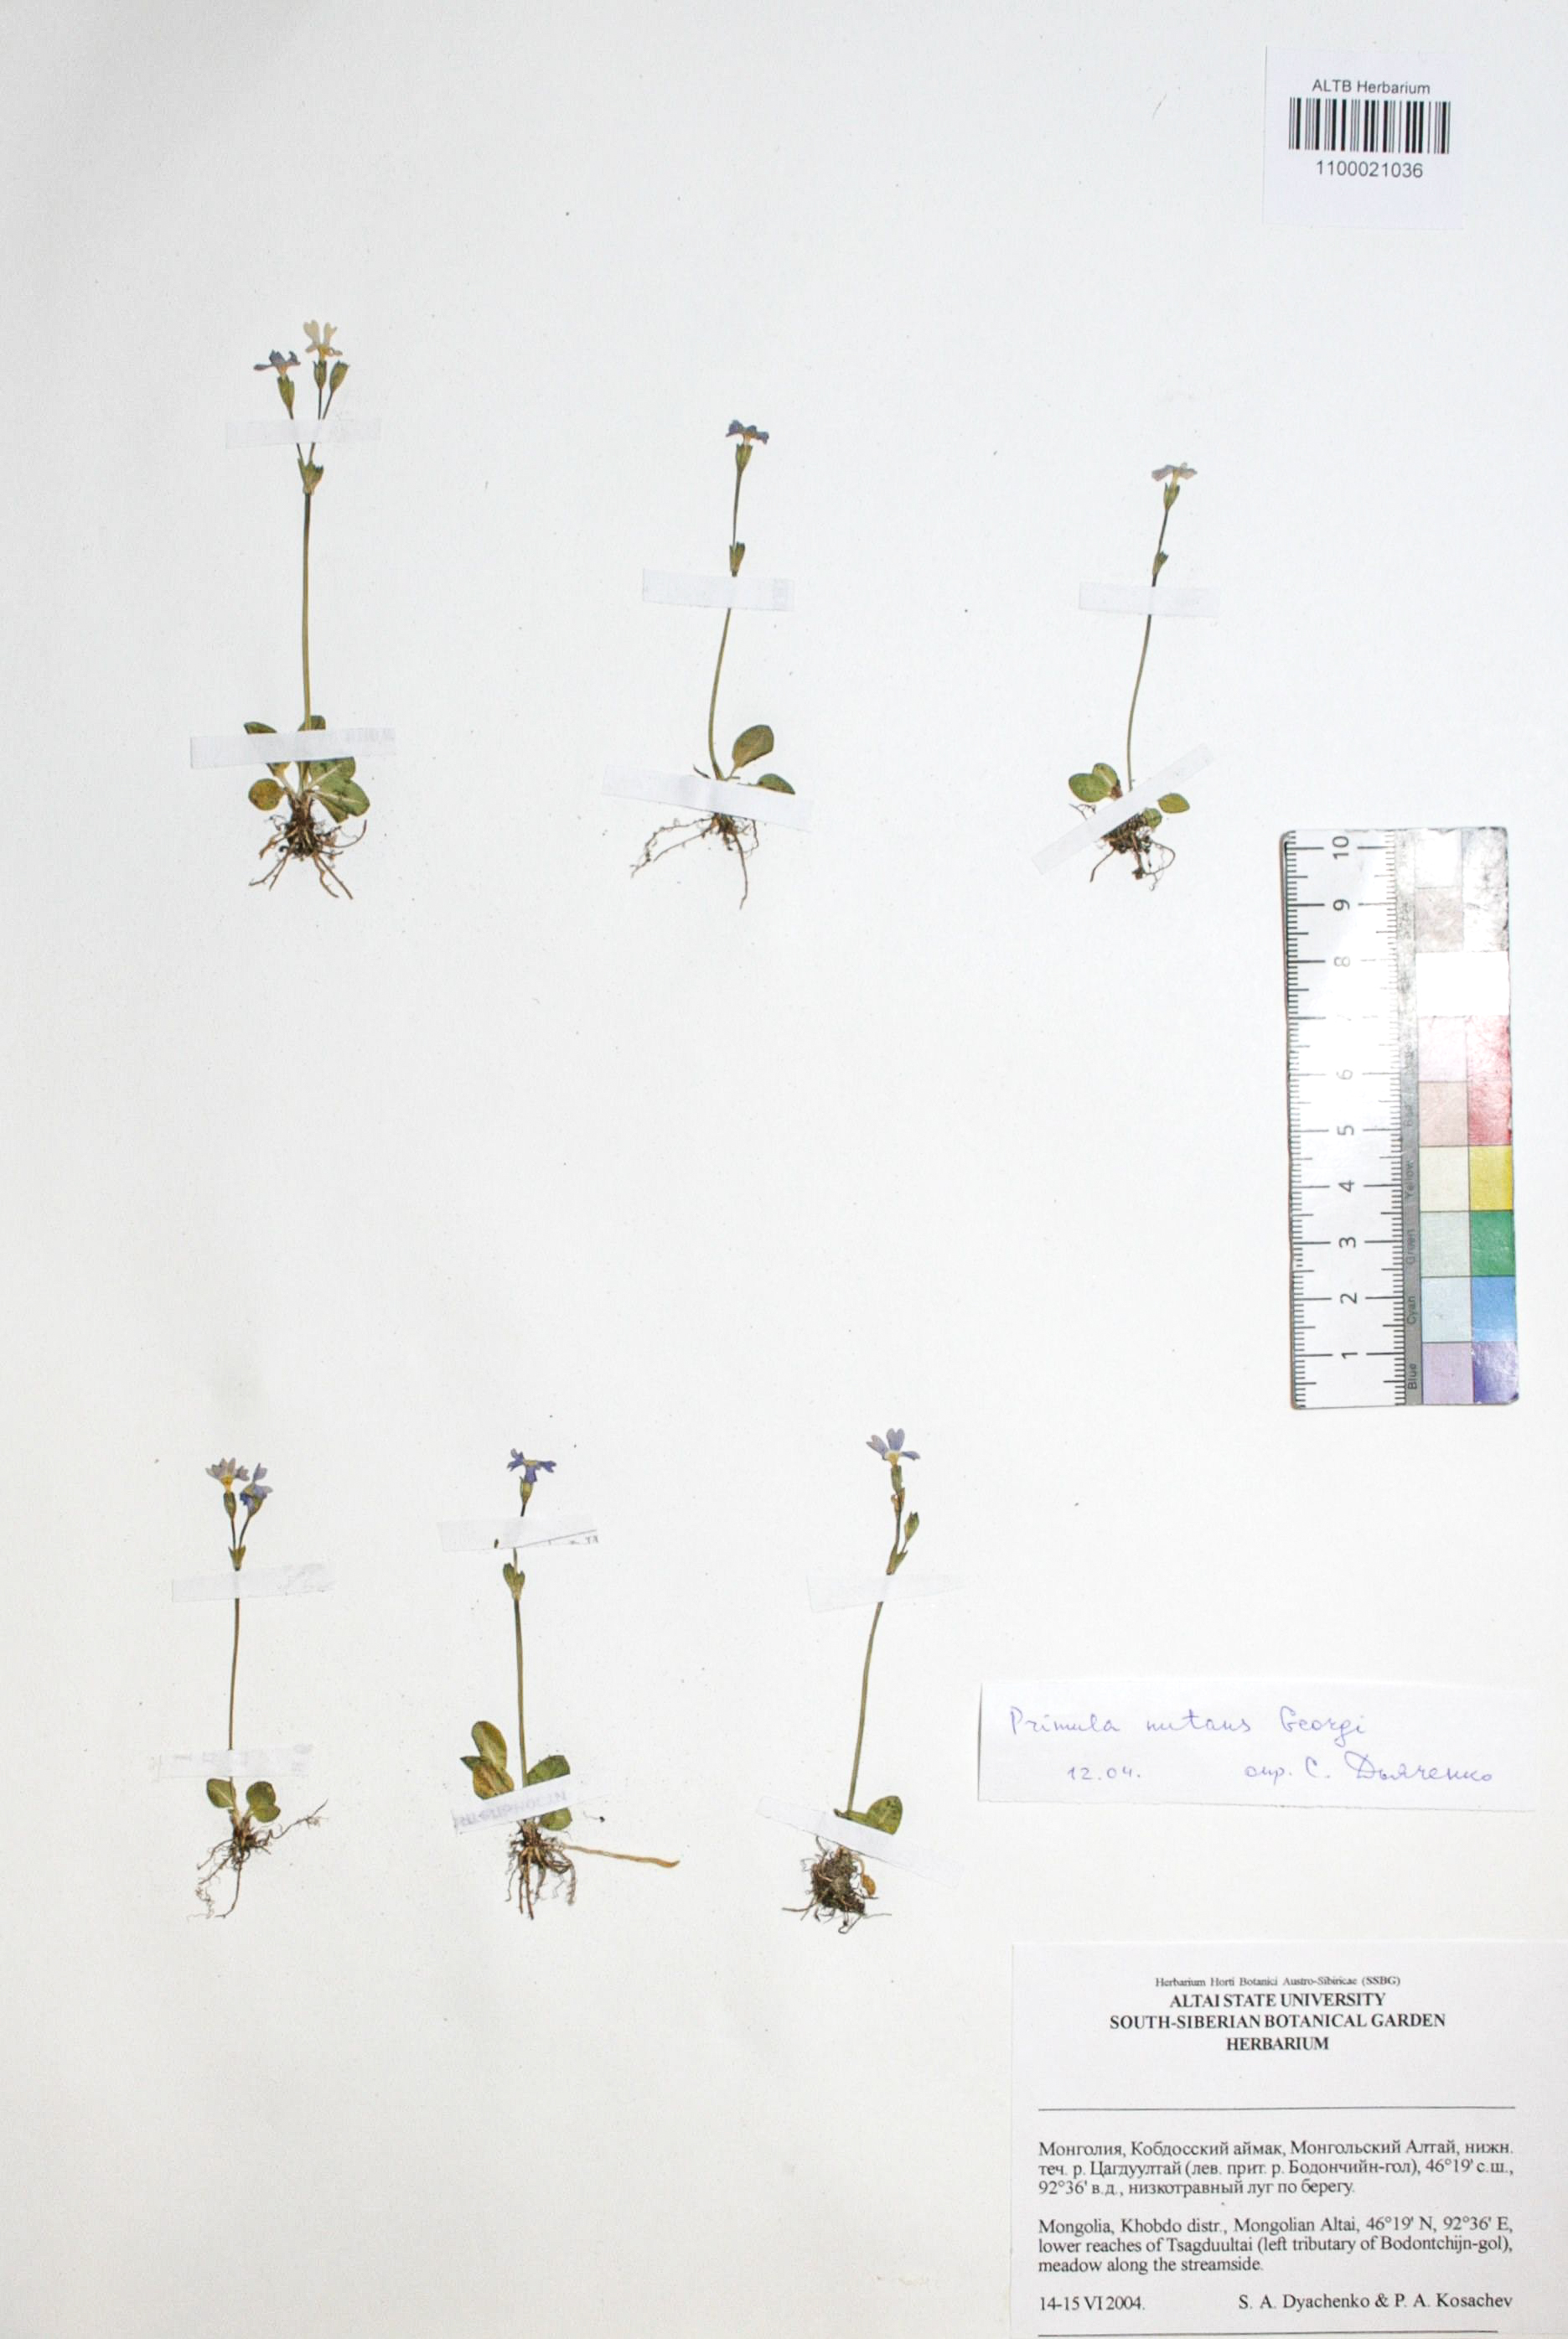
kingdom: Plantae
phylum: Tracheophyta
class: Magnoliopsida
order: Ericales
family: Primulaceae
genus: Primula
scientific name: Primula nutans
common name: Siberian primrose
